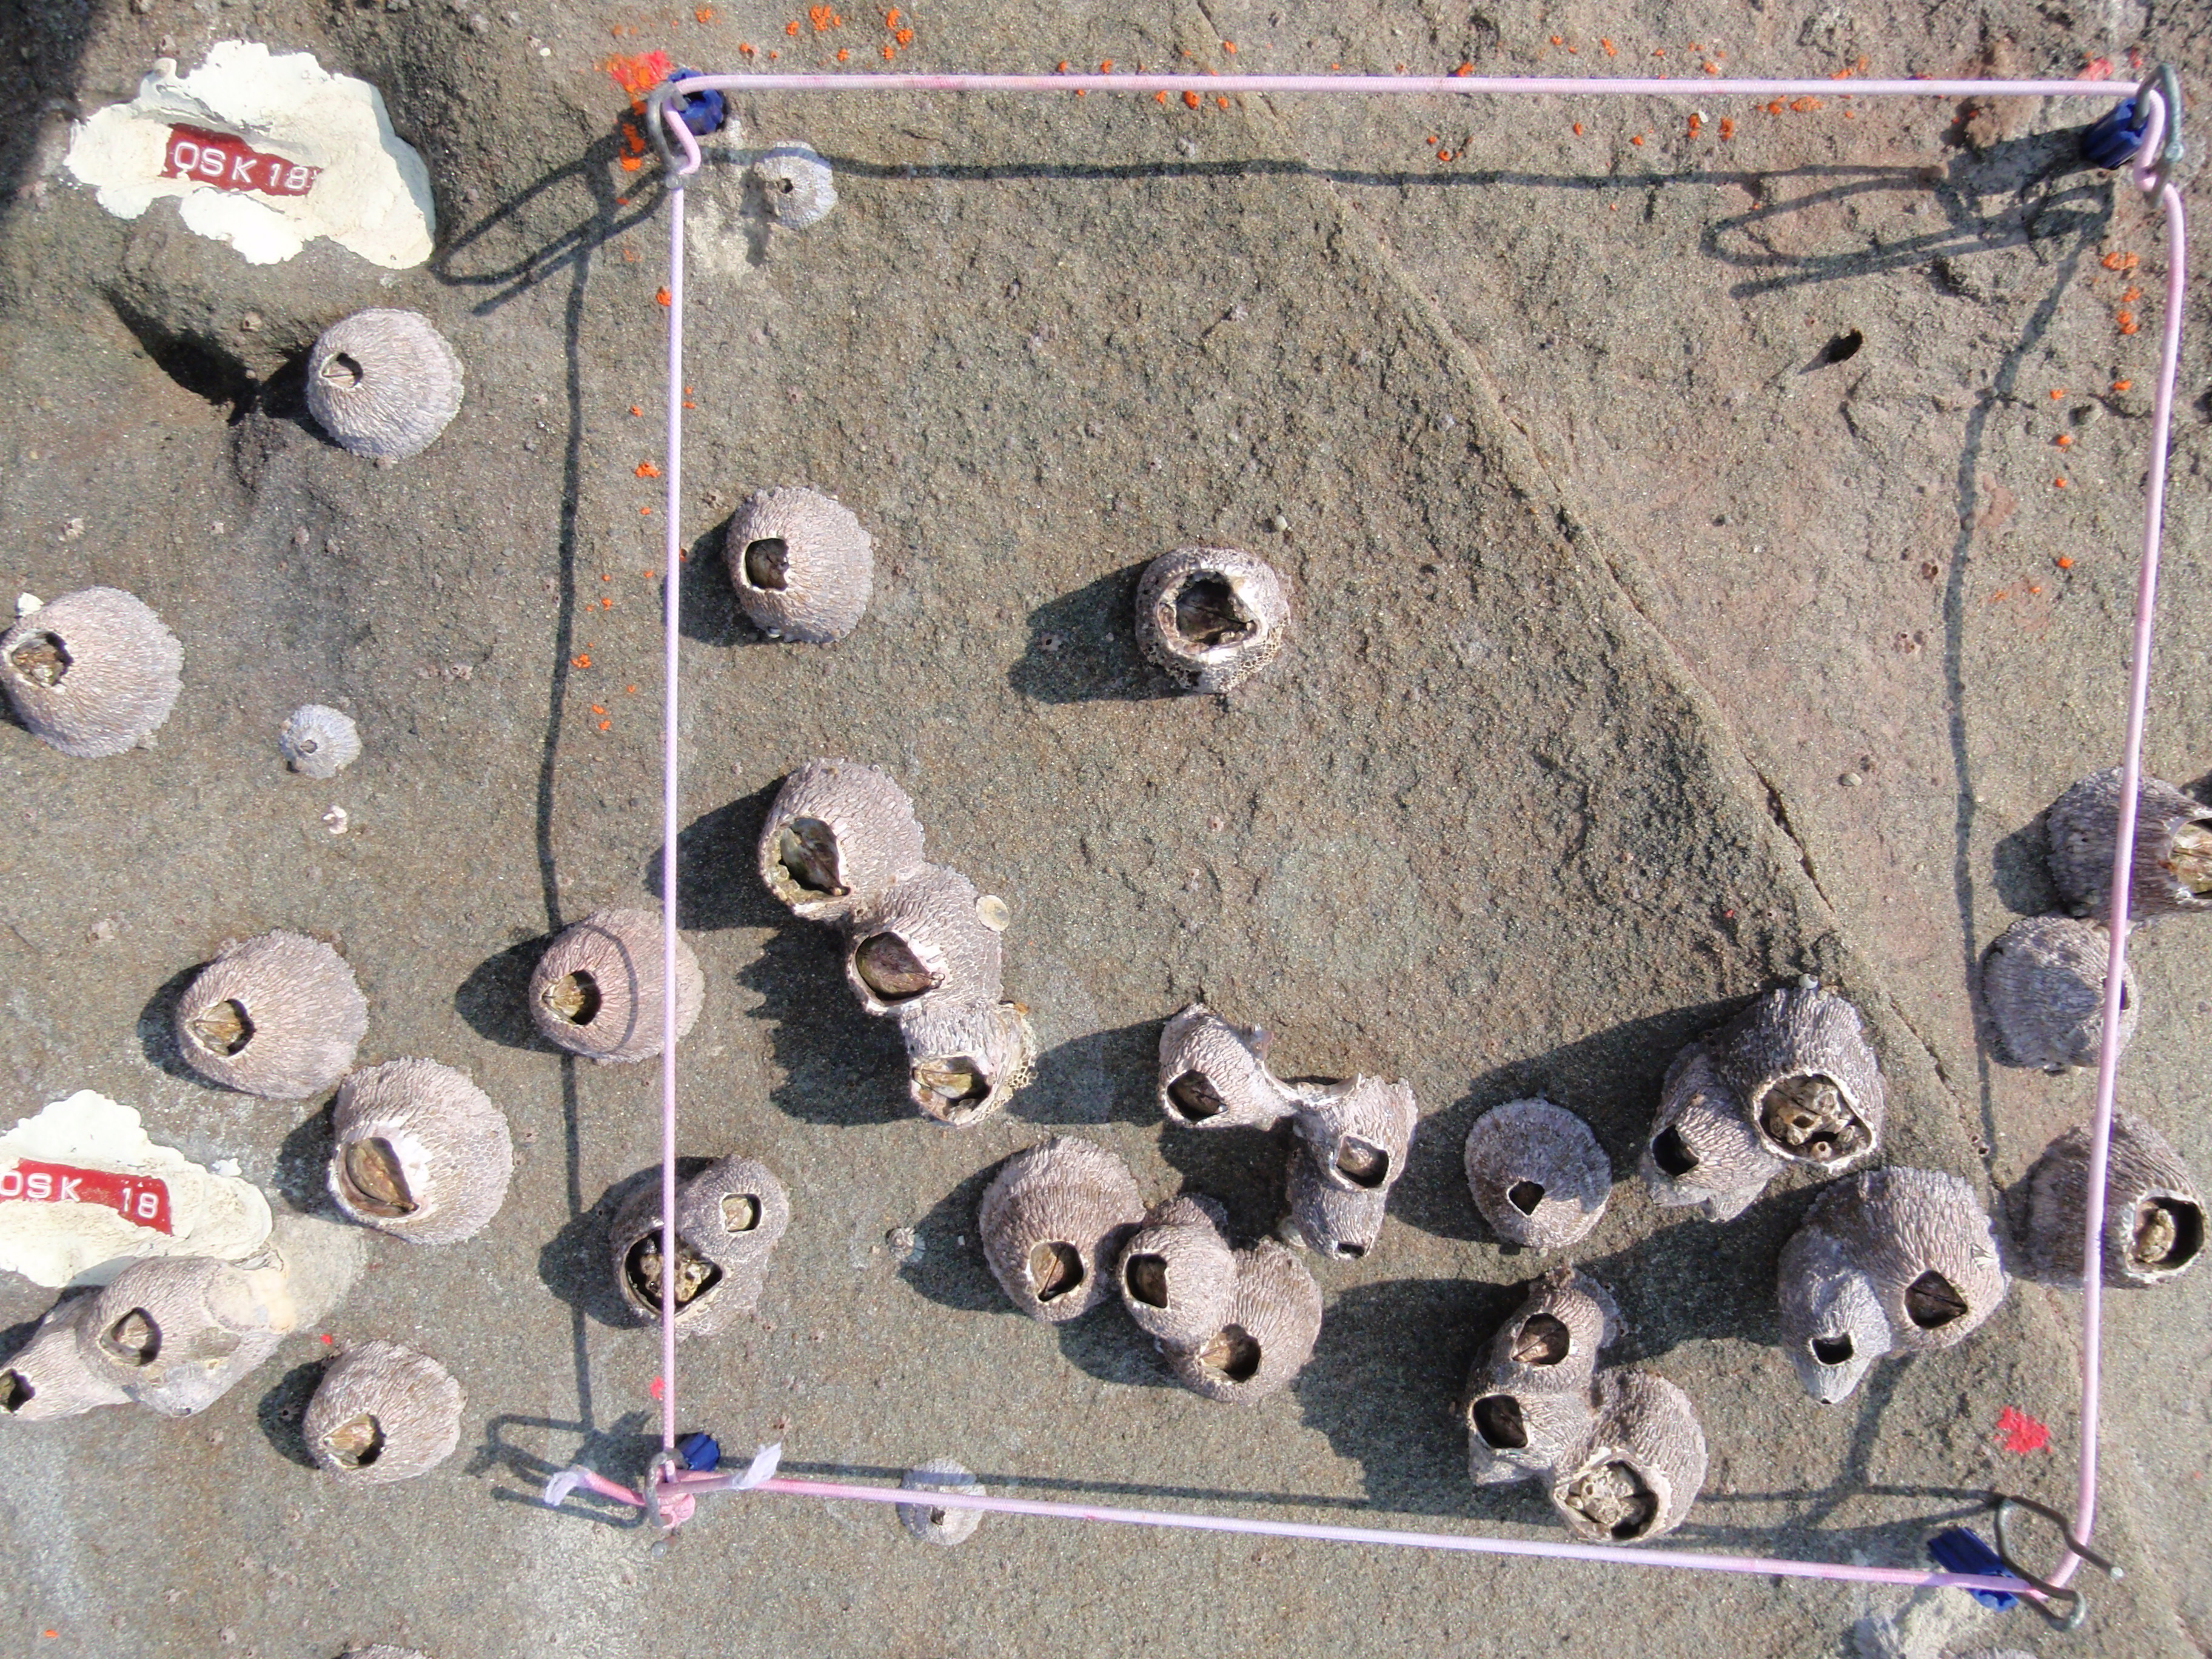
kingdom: Animalia
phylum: Arthropoda
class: Maxillopoda
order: Sessilia
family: Chthamalidae
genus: Chthamalus
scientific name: Chthamalus challengeri
